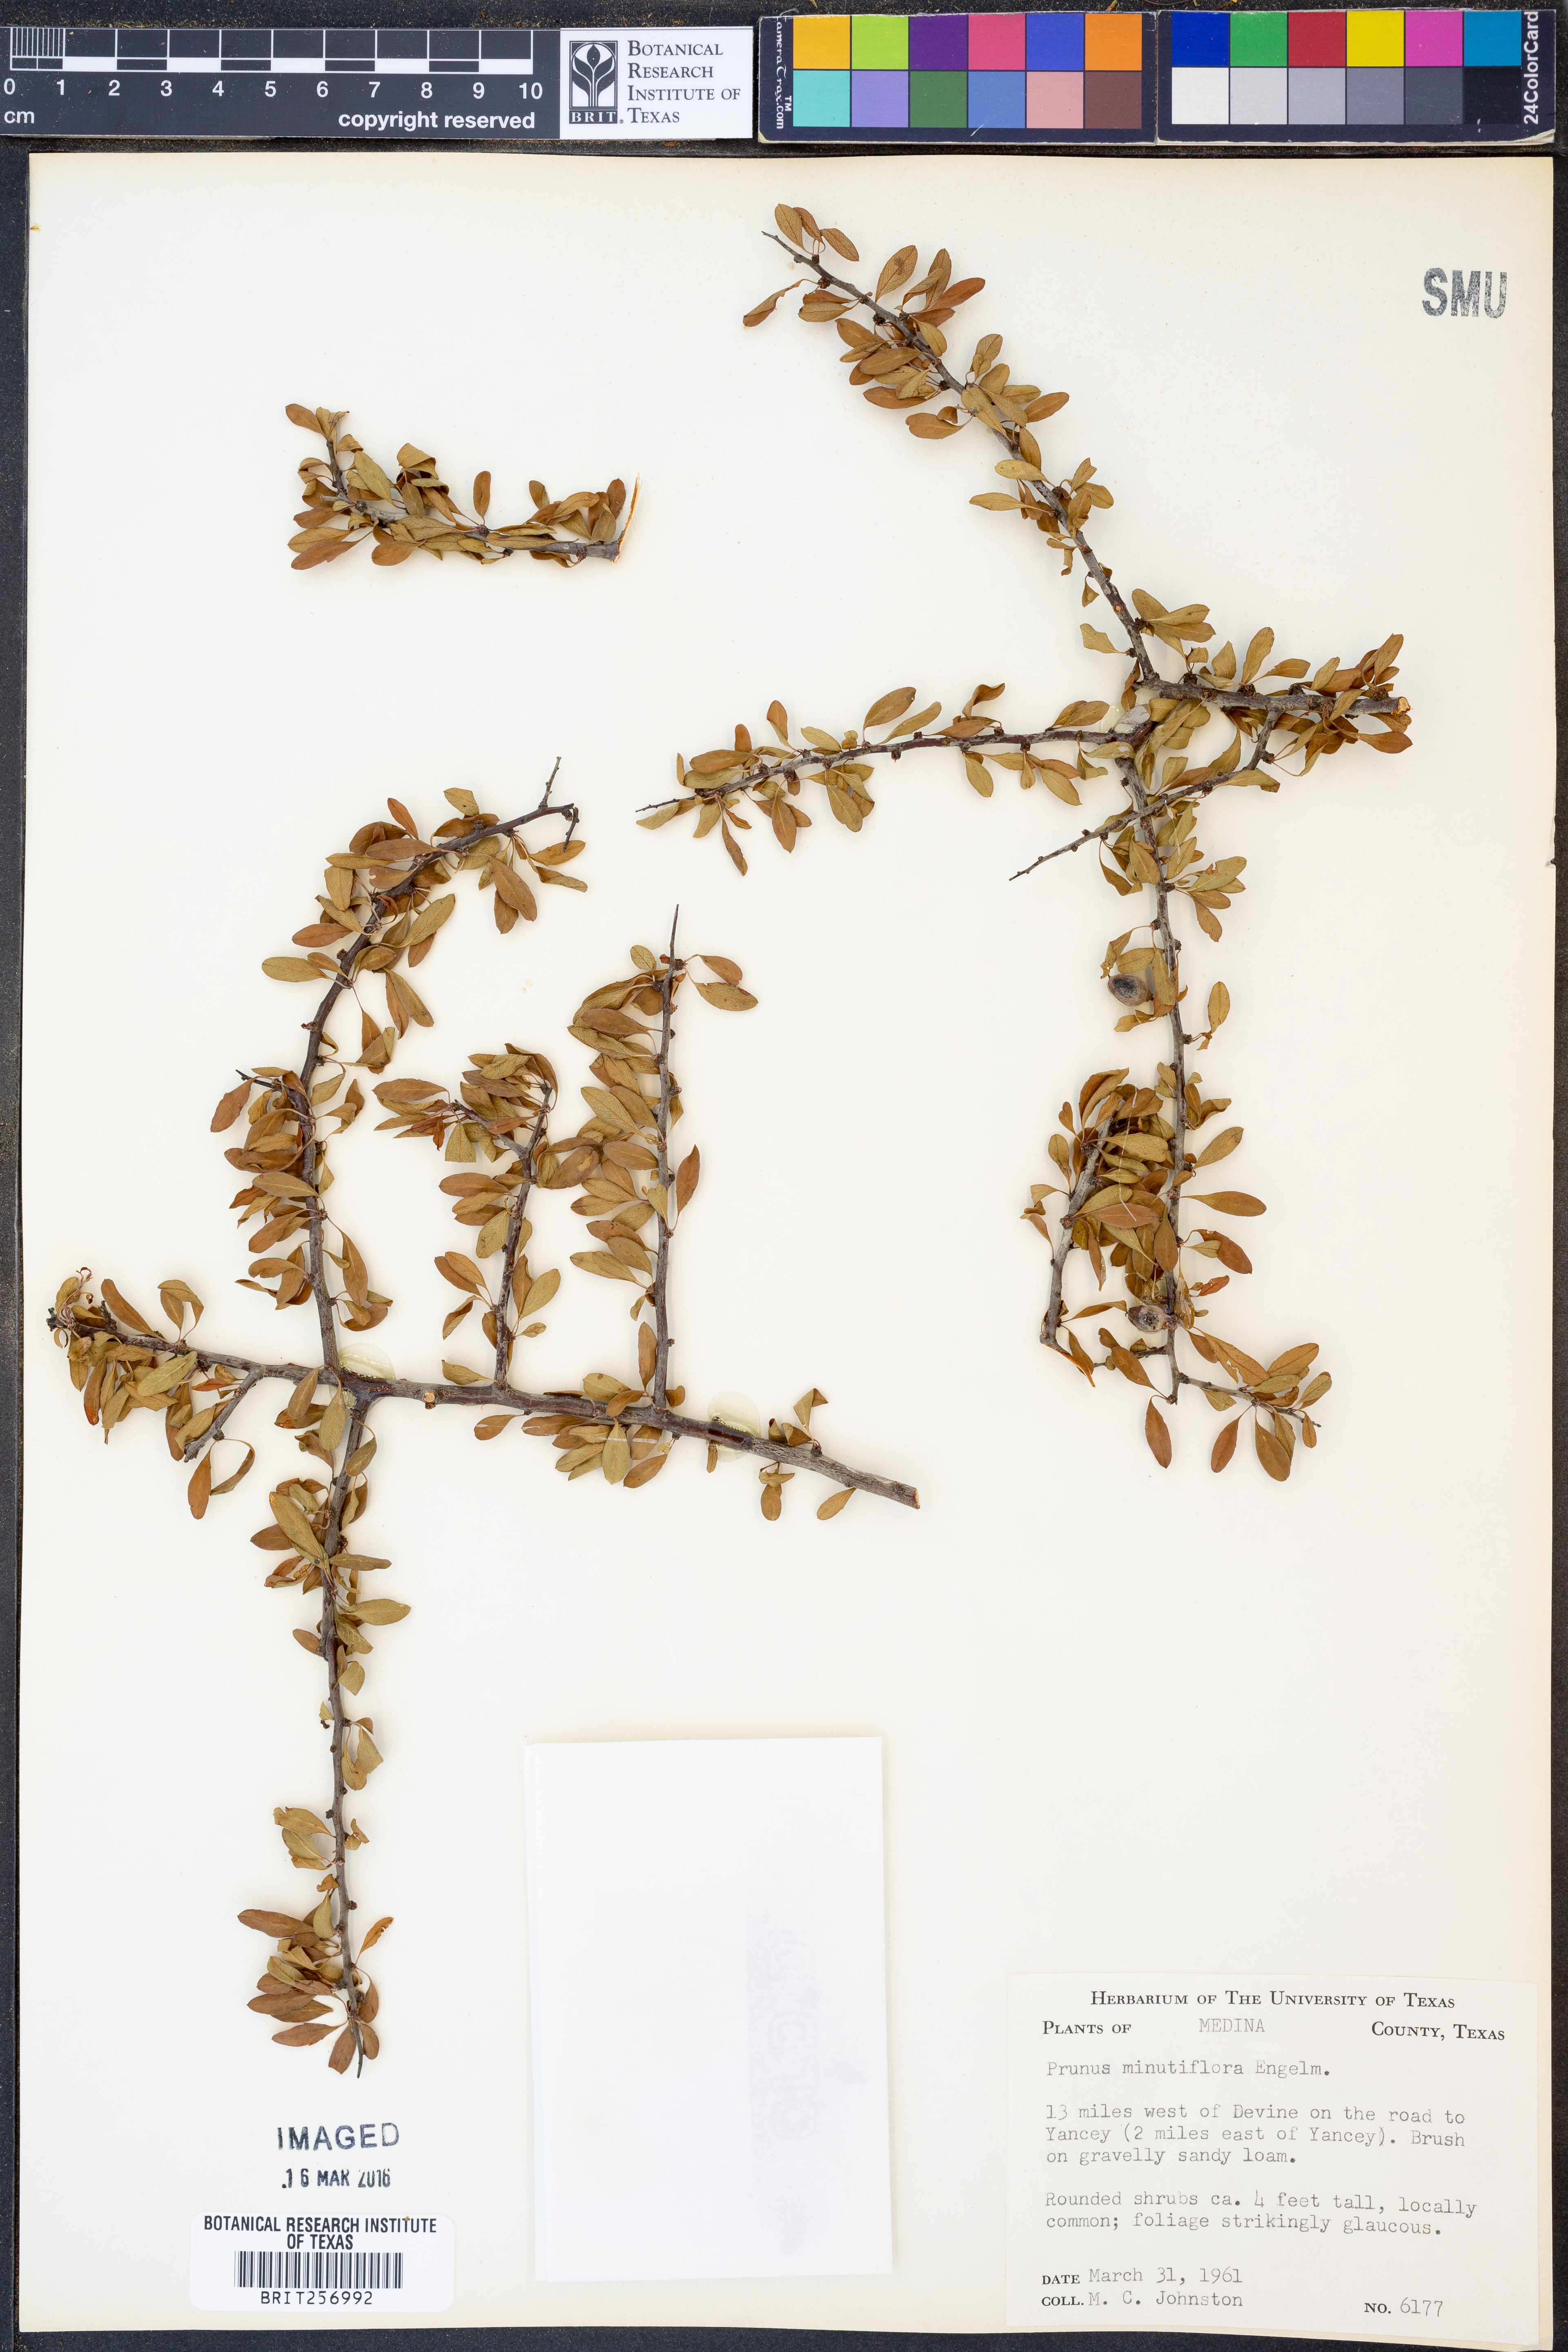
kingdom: Plantae
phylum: Tracheophyta
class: Magnoliopsida
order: Rosales
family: Rosaceae
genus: Prunus
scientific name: Prunus minutiflora
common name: Texas almond
